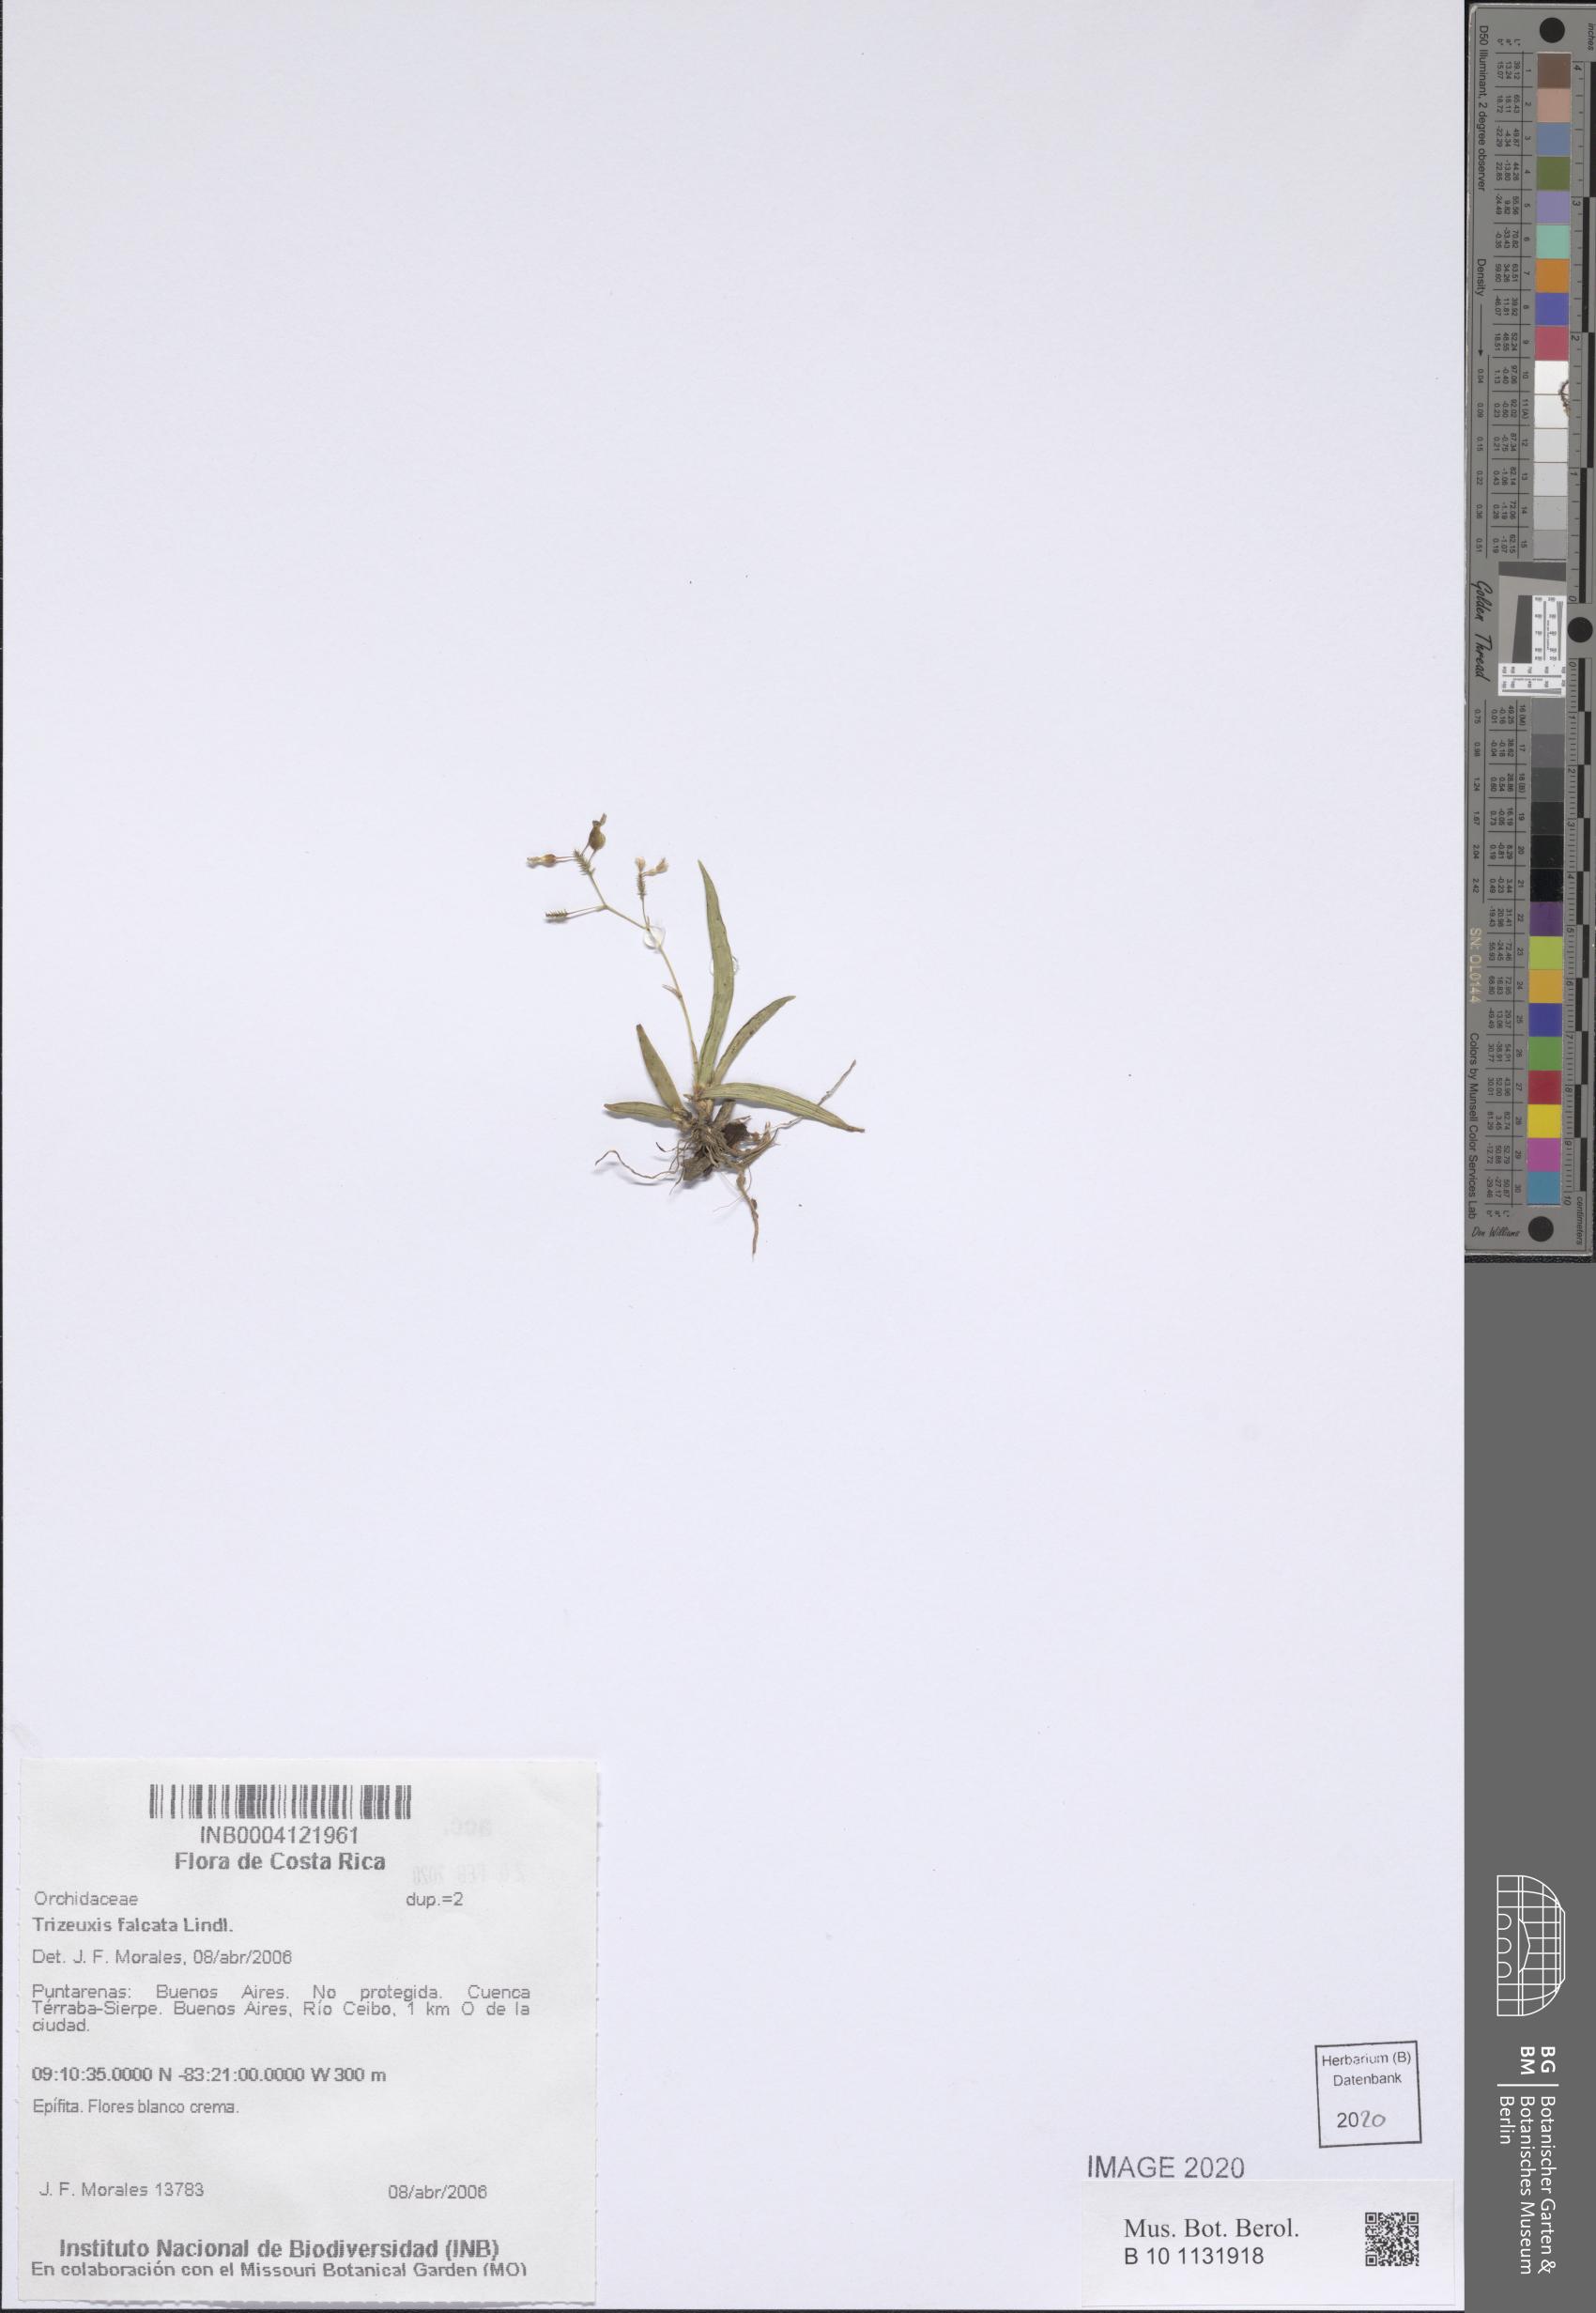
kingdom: Plantae
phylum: Tracheophyta
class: Liliopsida
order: Asparagales
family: Orchidaceae
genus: Trizeuxis
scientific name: Trizeuxis falcata
